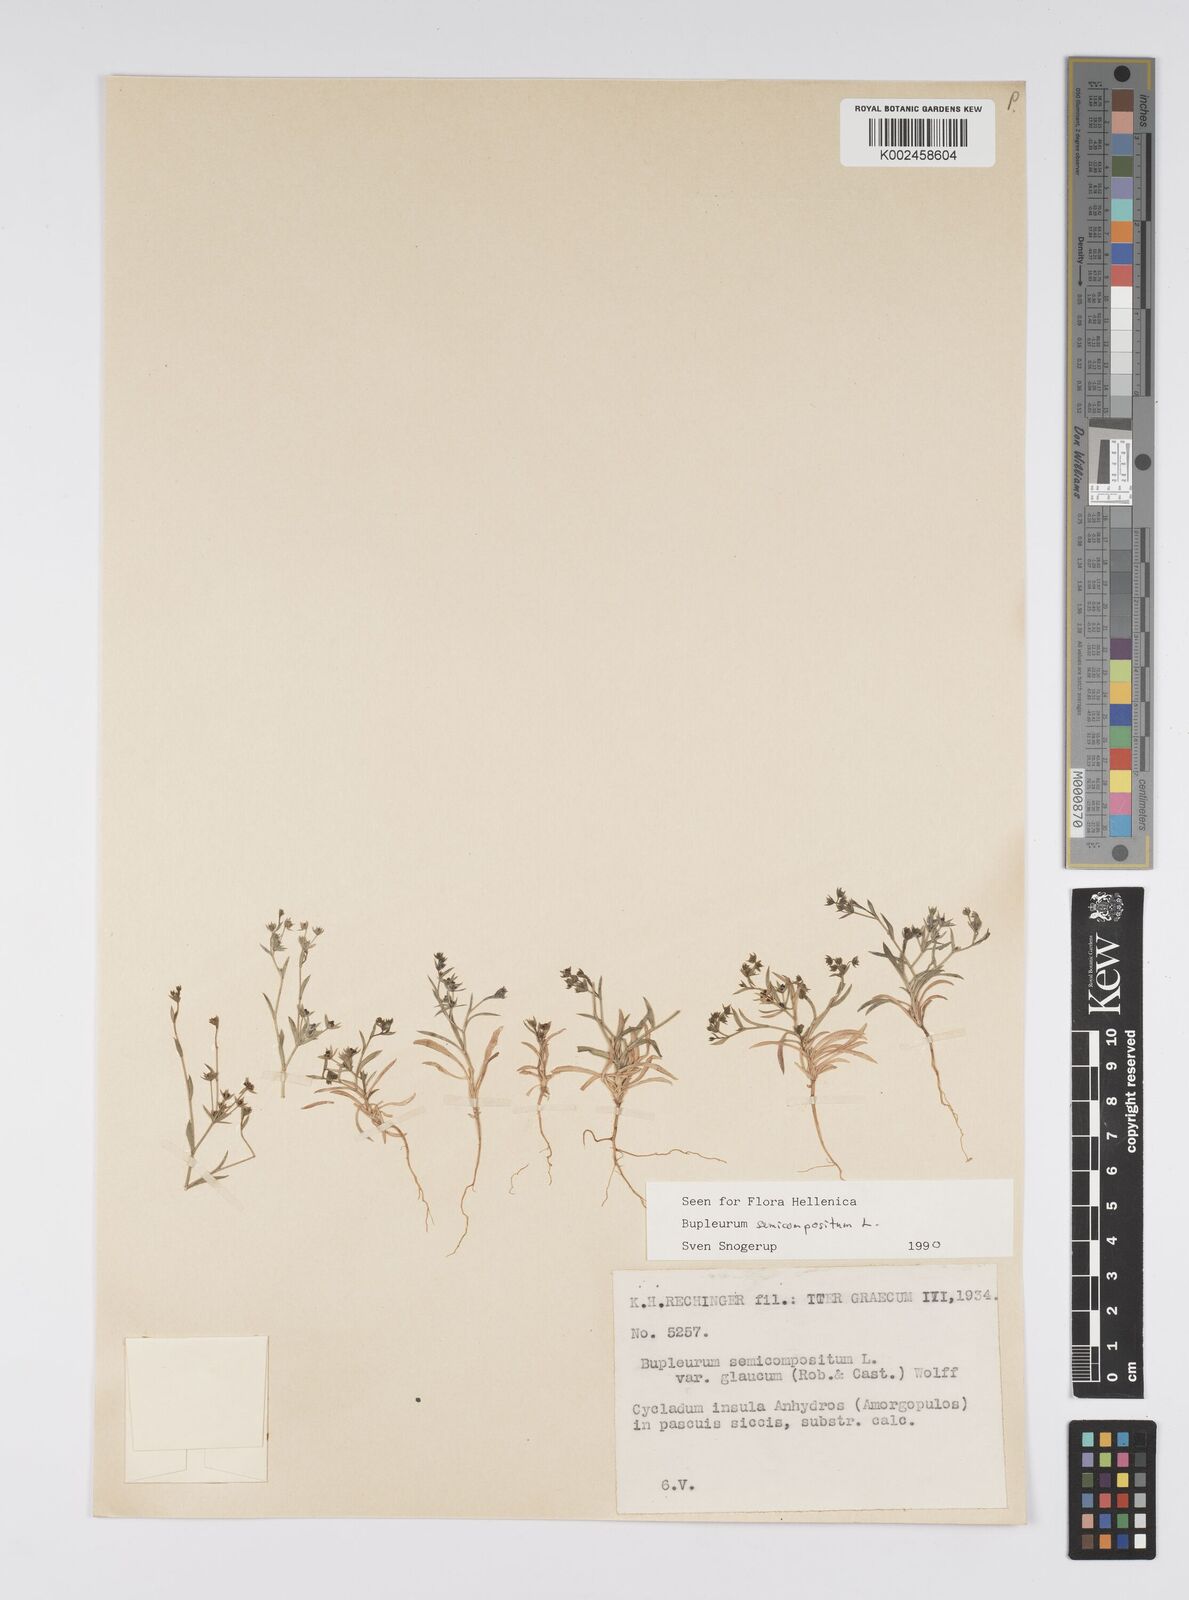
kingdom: Plantae
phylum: Tracheophyta
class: Magnoliopsida
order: Apiales
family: Apiaceae
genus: Bupleurum
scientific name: Bupleurum semicompositum
